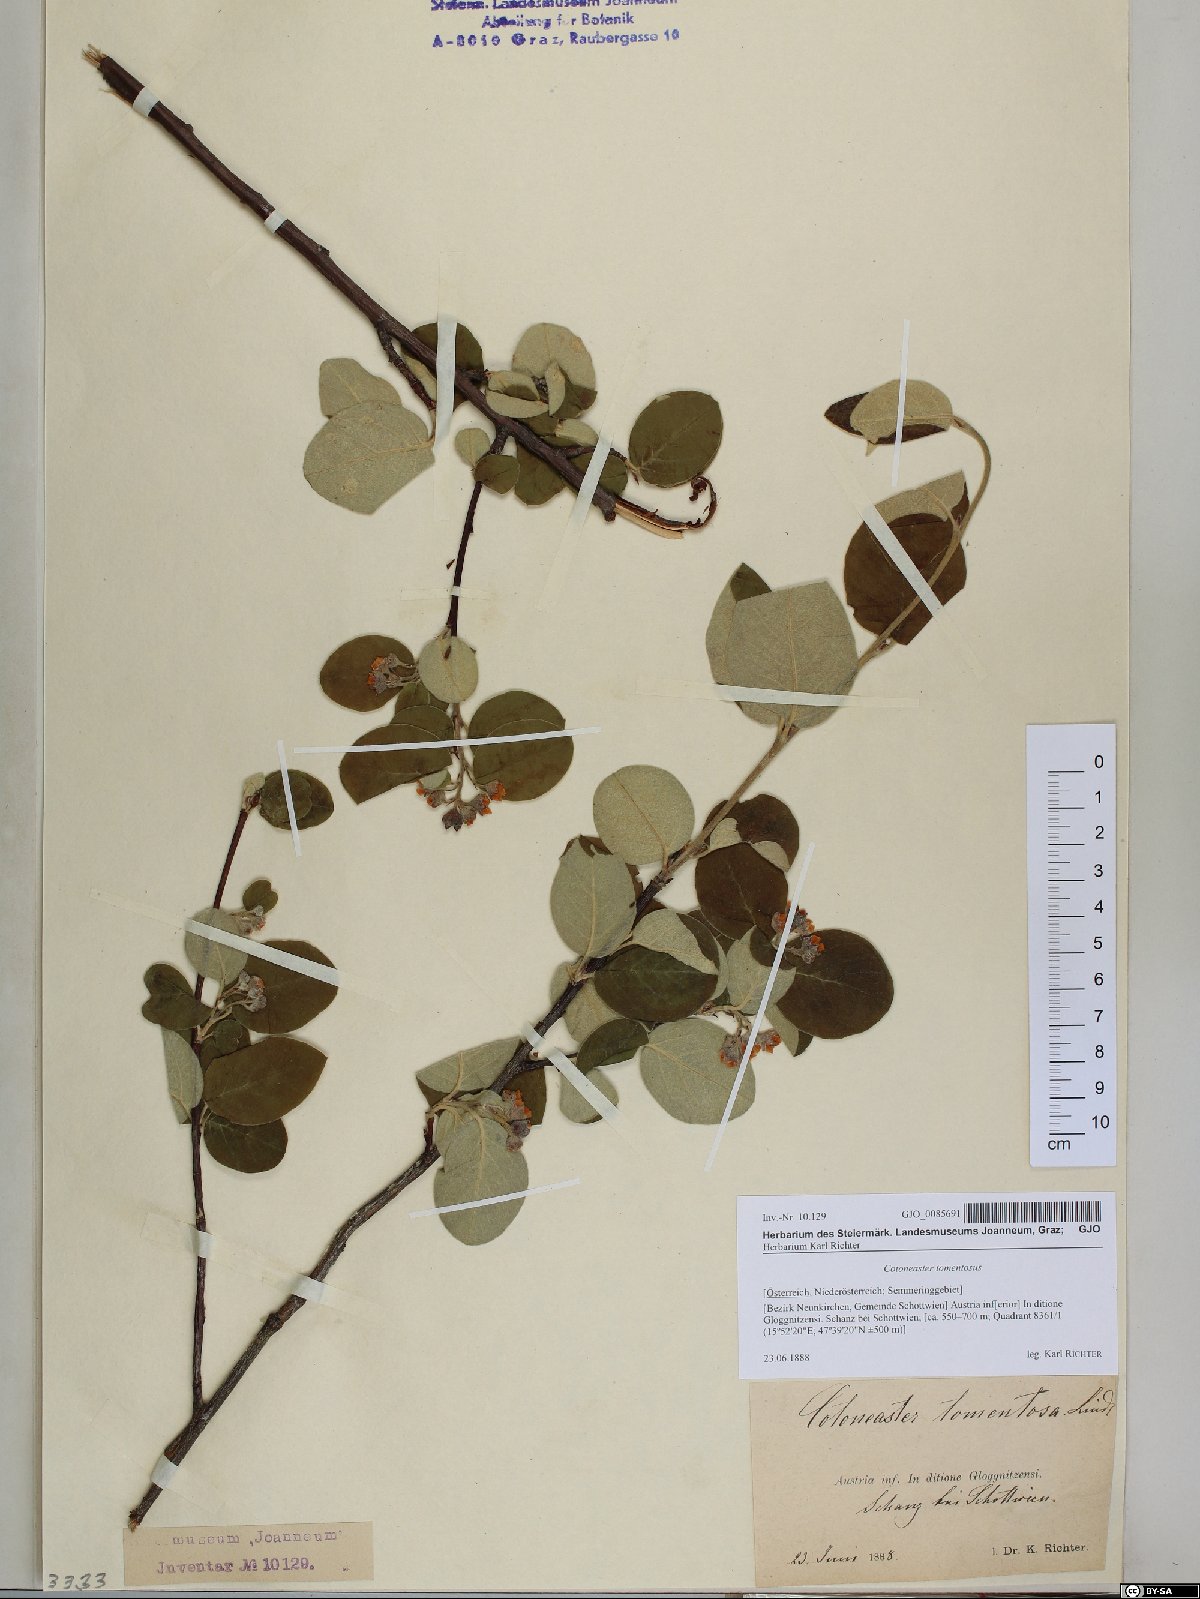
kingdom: Plantae
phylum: Tracheophyta
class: Magnoliopsida
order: Rosales
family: Rosaceae
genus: Cotoneaster
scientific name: Cotoneaster tomentosus
